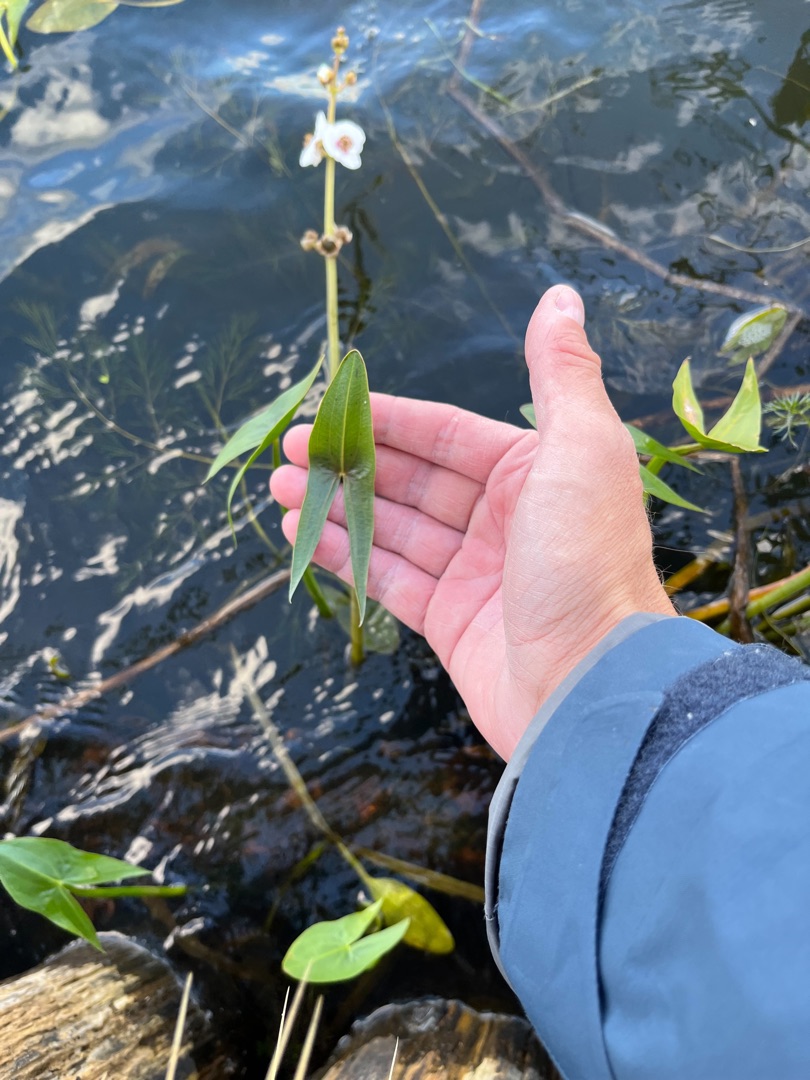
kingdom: Plantae
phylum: Tracheophyta
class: Liliopsida
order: Alismatales
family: Alismataceae
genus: Sagittaria
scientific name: Sagittaria sagittifolia
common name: Pilblad
